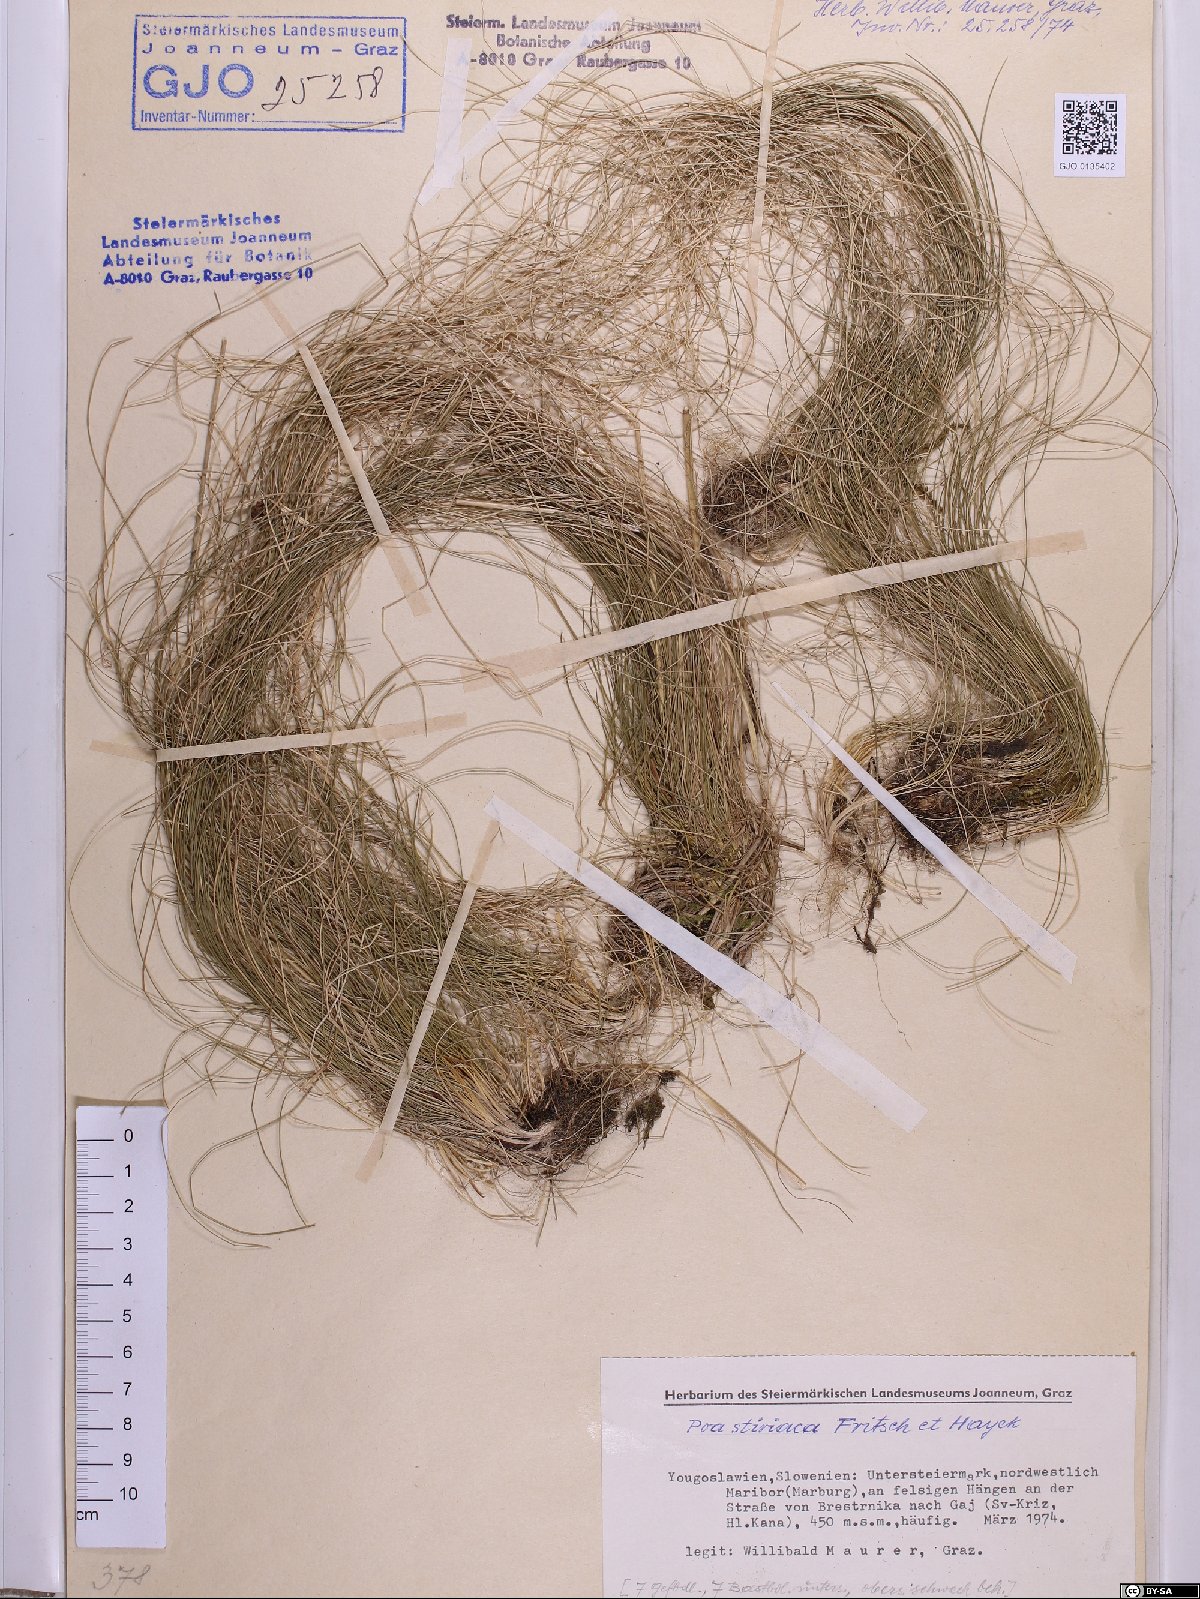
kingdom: Plantae
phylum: Tracheophyta
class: Liliopsida
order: Poales
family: Poaceae
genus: Poa
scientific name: Poa stiriaca
